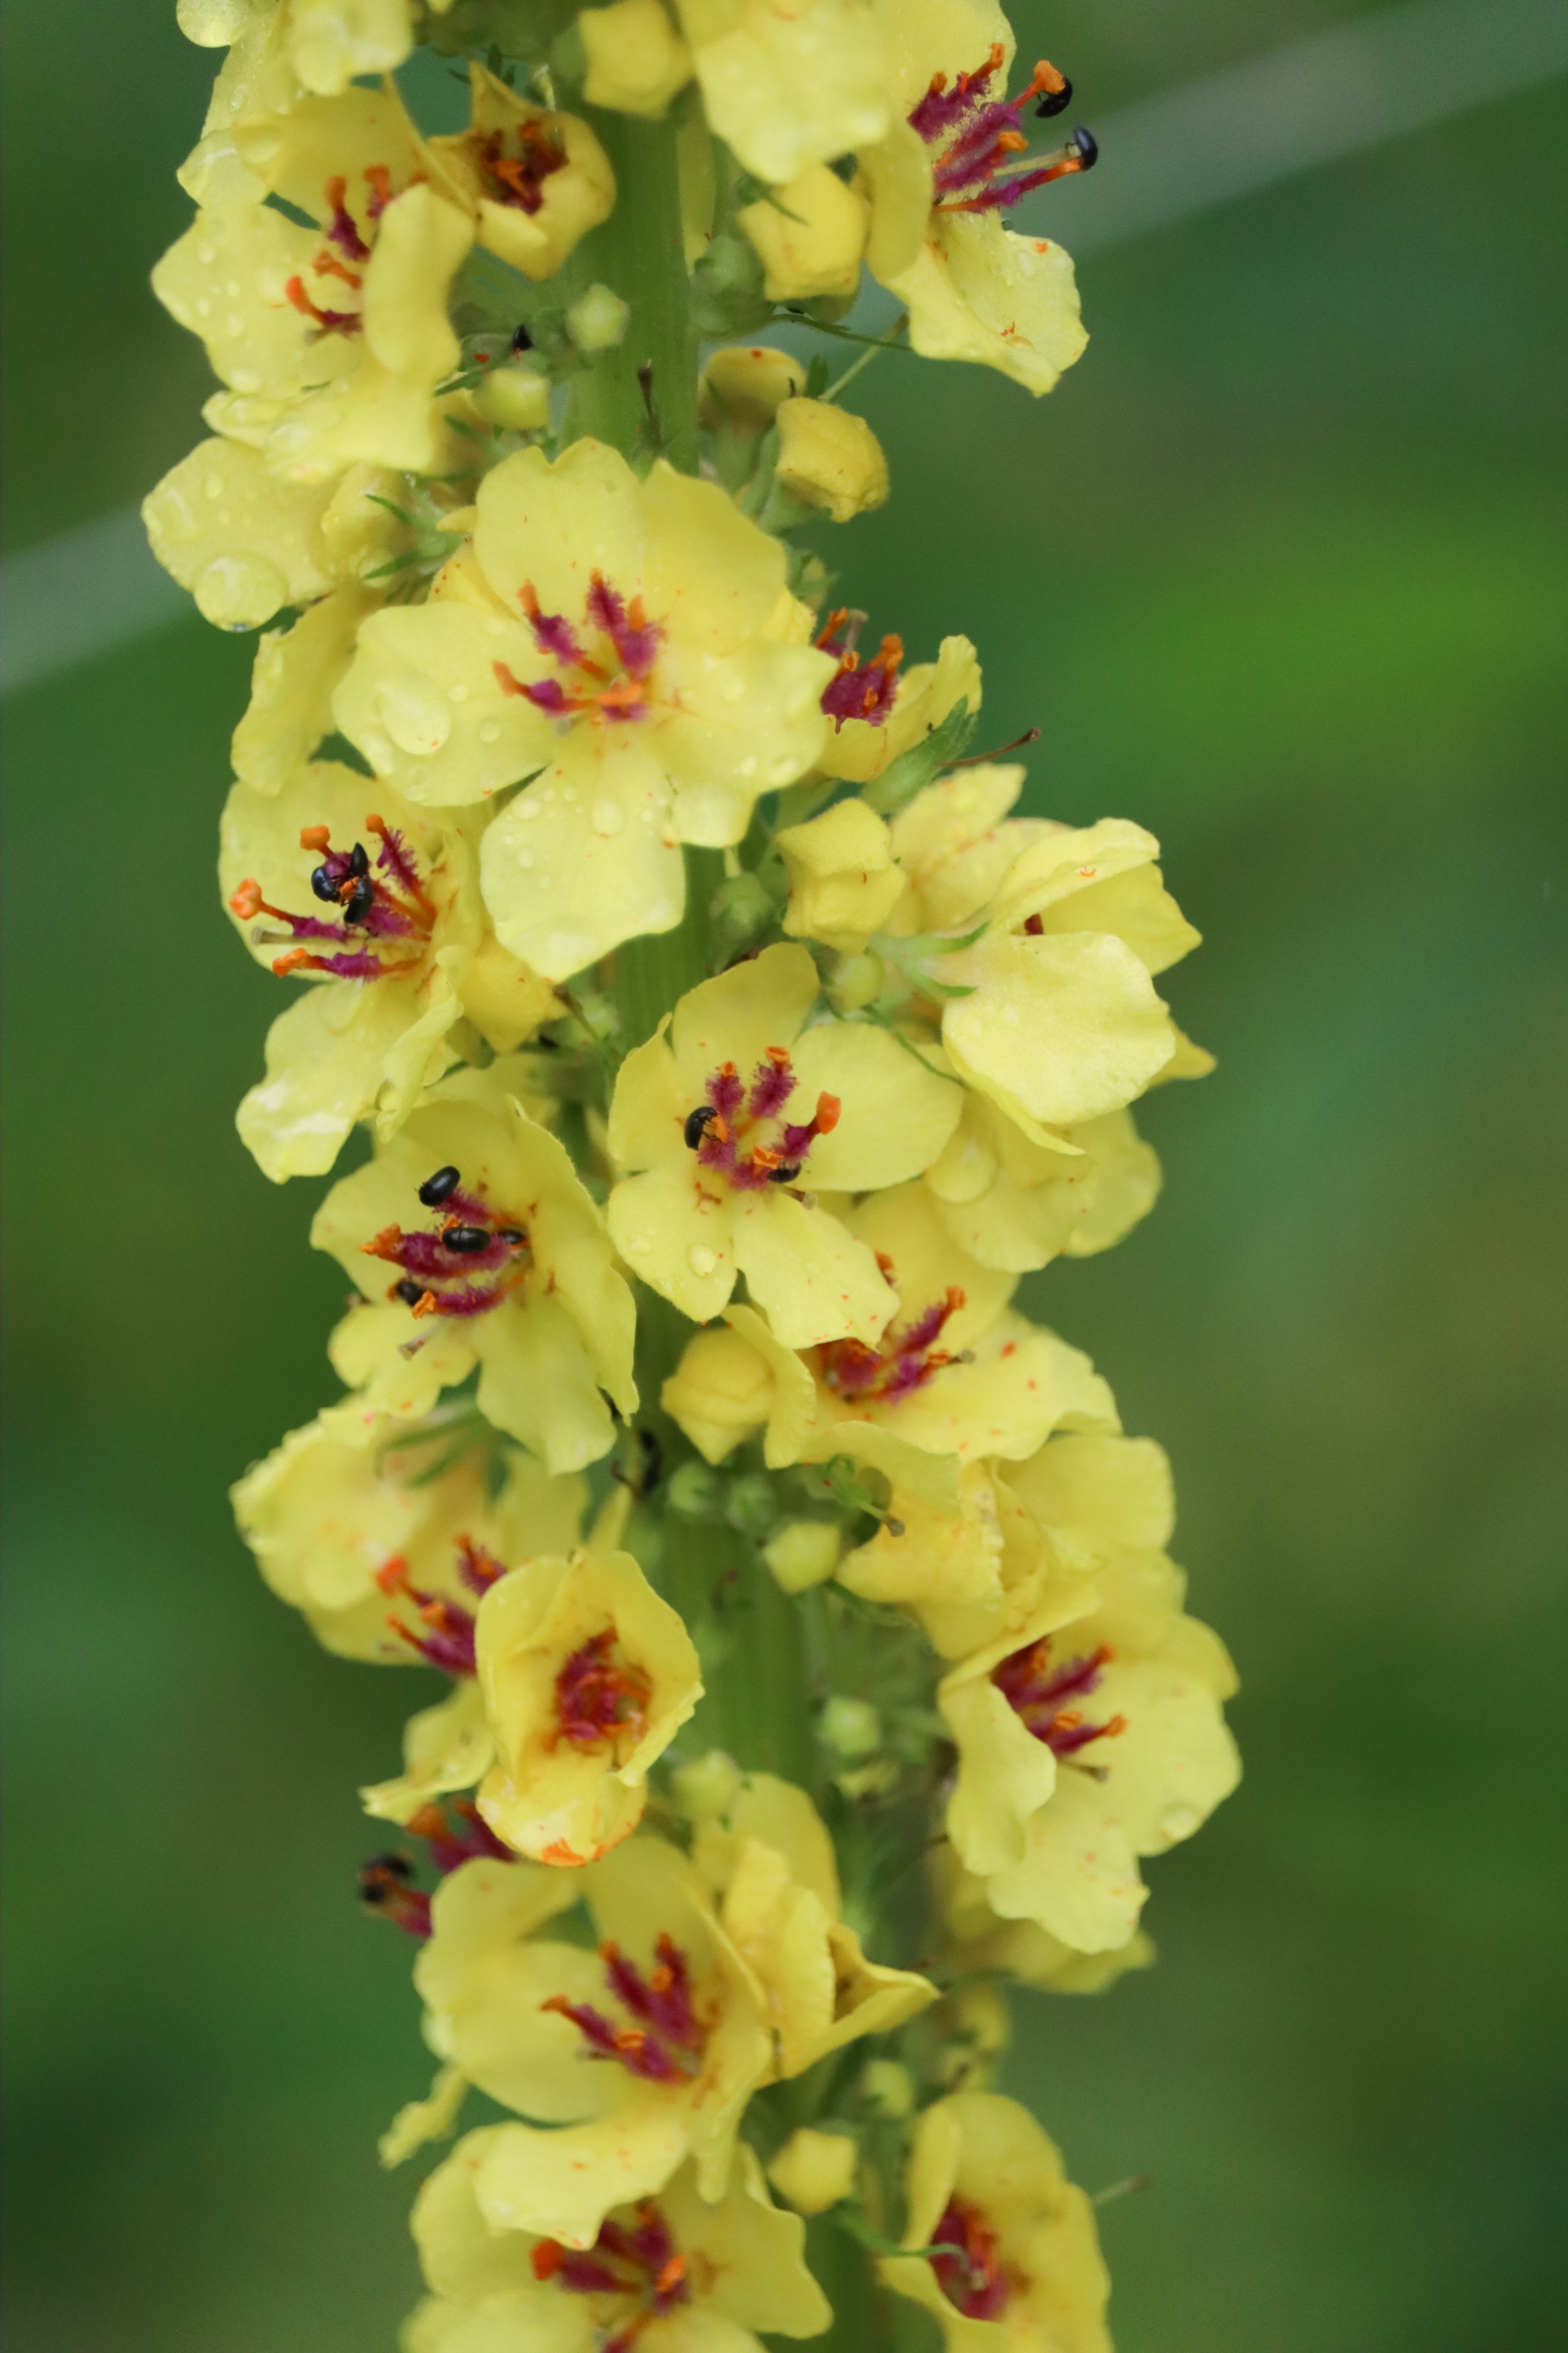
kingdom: Plantae
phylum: Tracheophyta
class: Magnoliopsida
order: Lamiales
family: Scrophulariaceae
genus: Verbascum
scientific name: Verbascum nigrum
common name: Mørk kongelys
